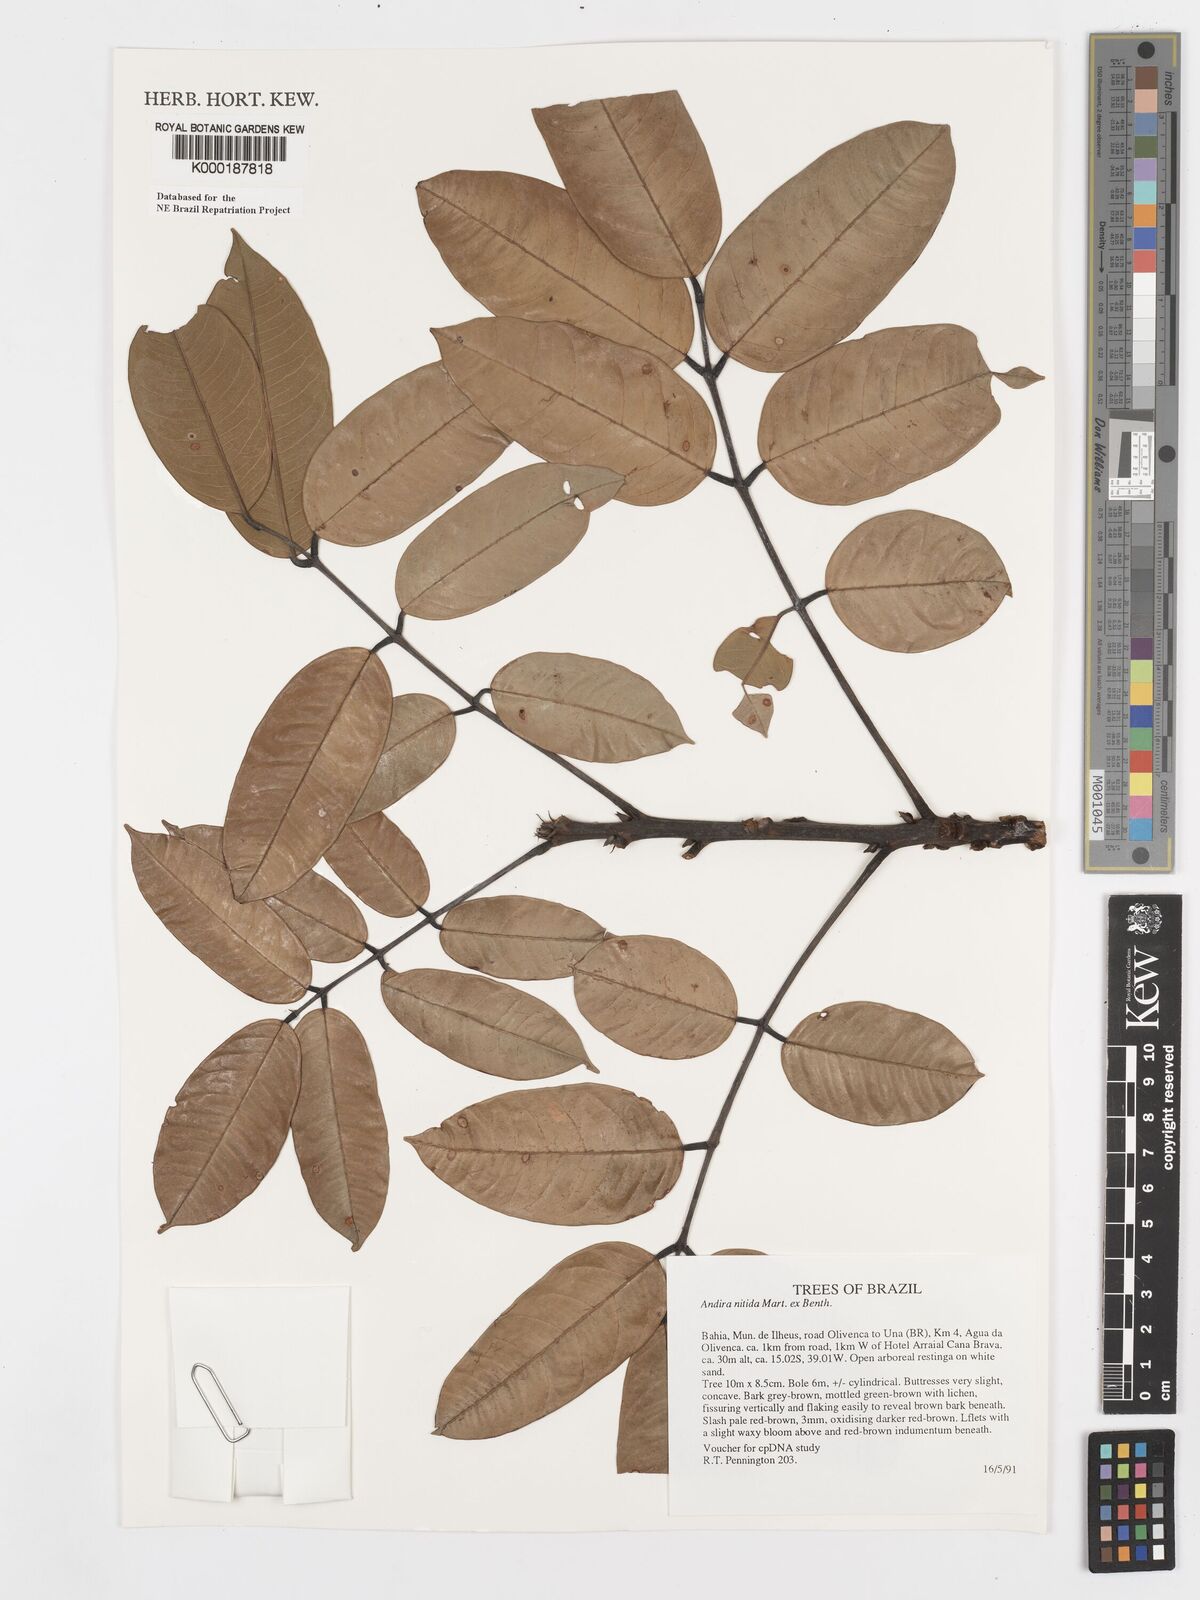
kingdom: Plantae
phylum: Tracheophyta
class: Magnoliopsida
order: Fabales
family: Fabaceae
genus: Andira
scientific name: Andira nitida
